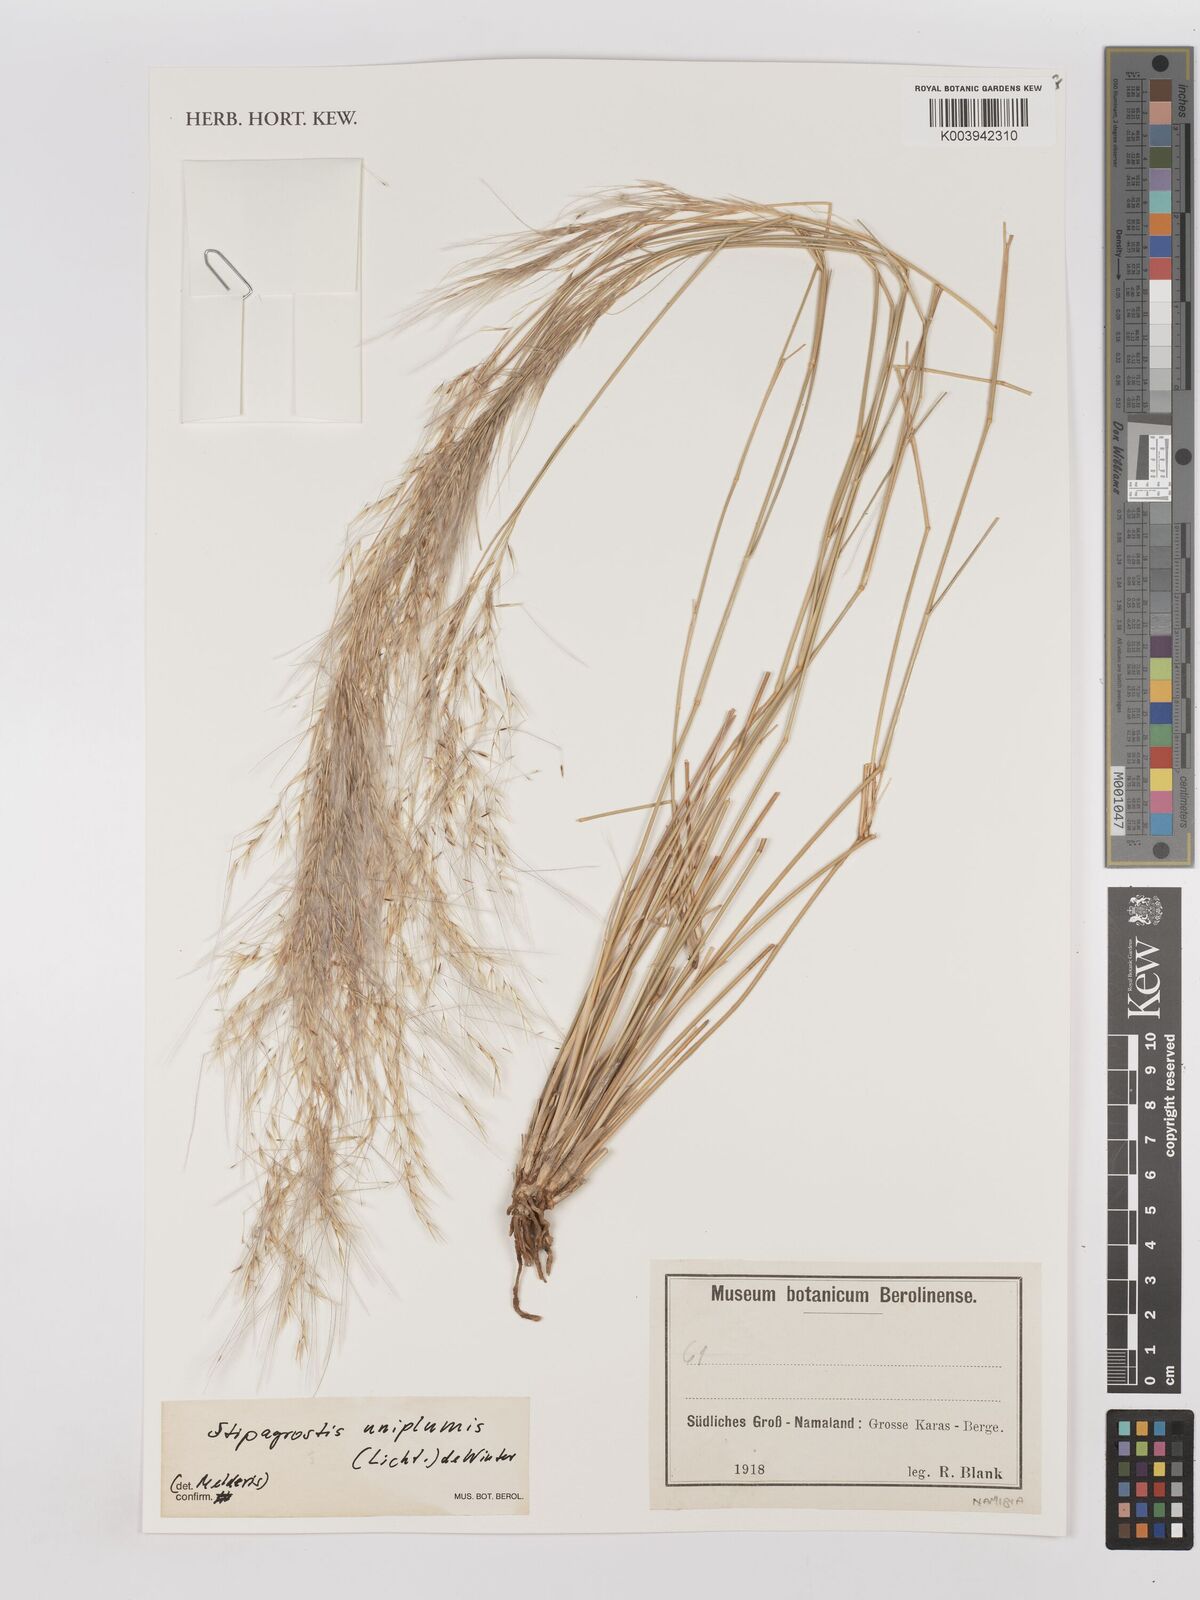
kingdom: Plantae
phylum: Tracheophyta
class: Liliopsida
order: Poales
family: Poaceae
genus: Stipagrostis
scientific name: Stipagrostis uniplumis
